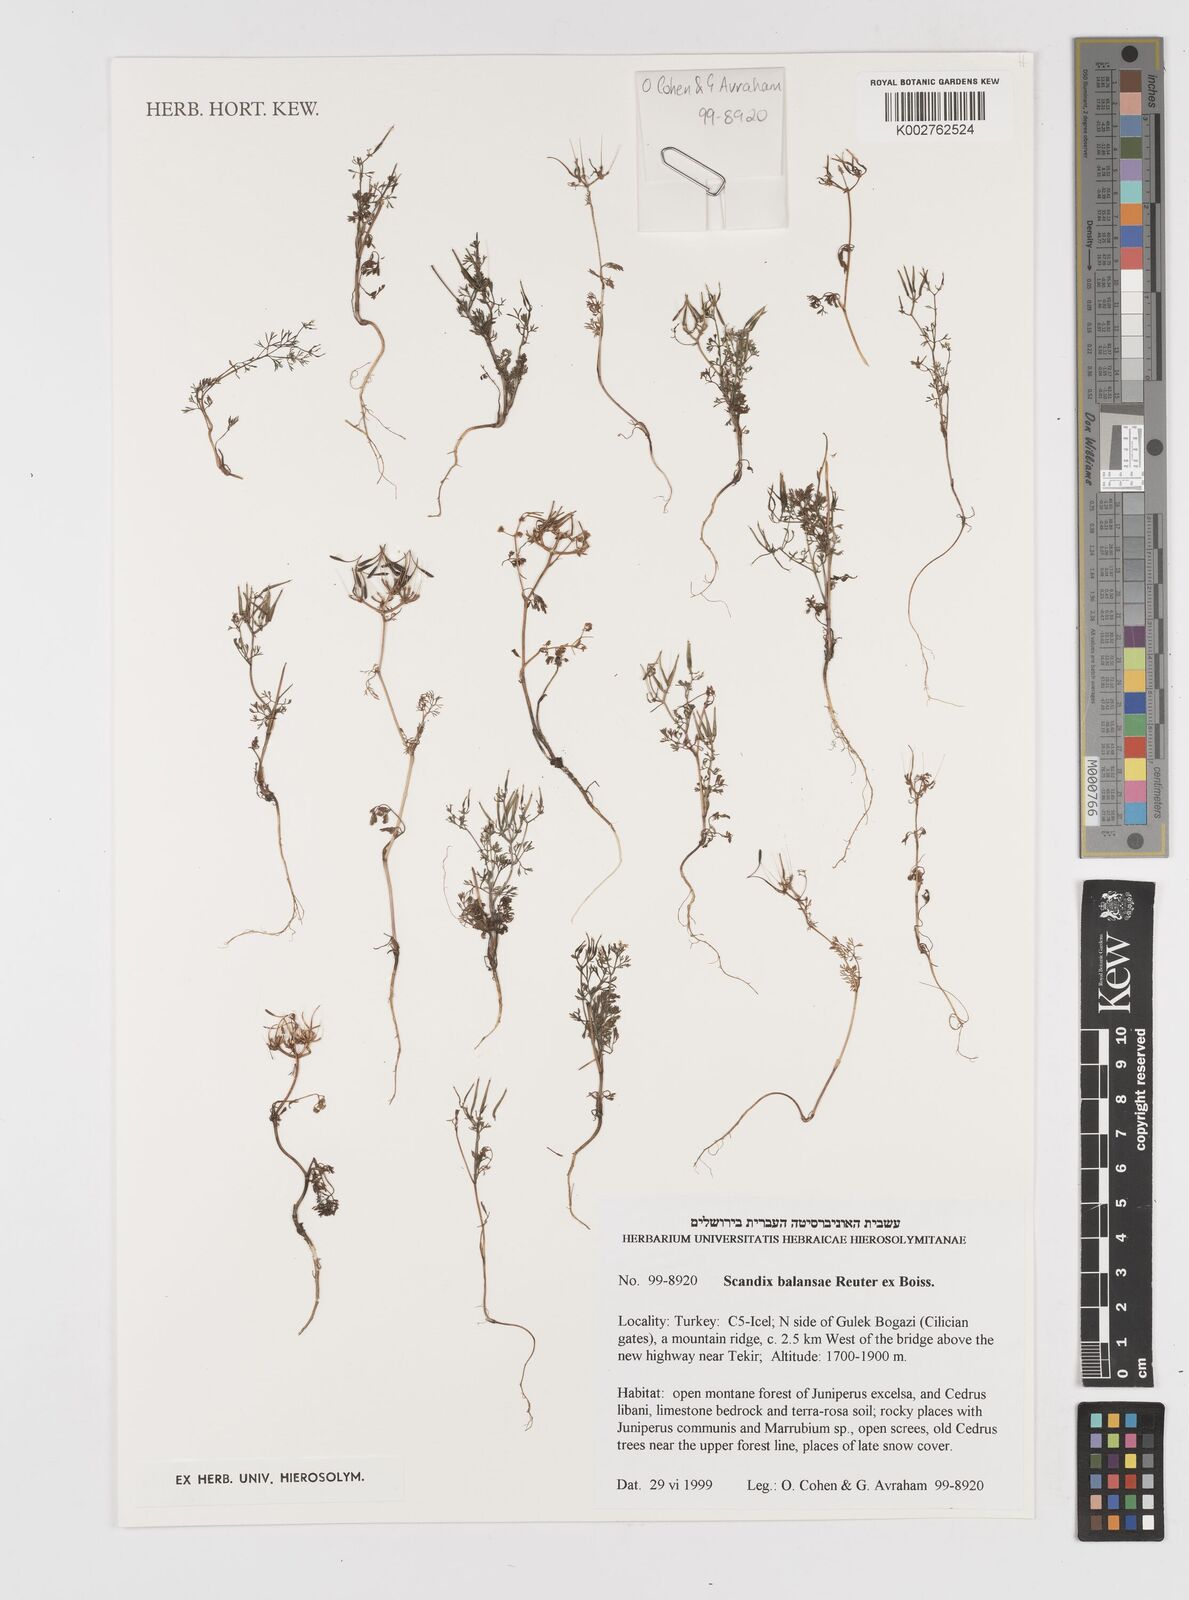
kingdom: Plantae
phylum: Tracheophyta
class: Magnoliopsida
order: Apiales
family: Apiaceae
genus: Scandix
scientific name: Scandix balansae
